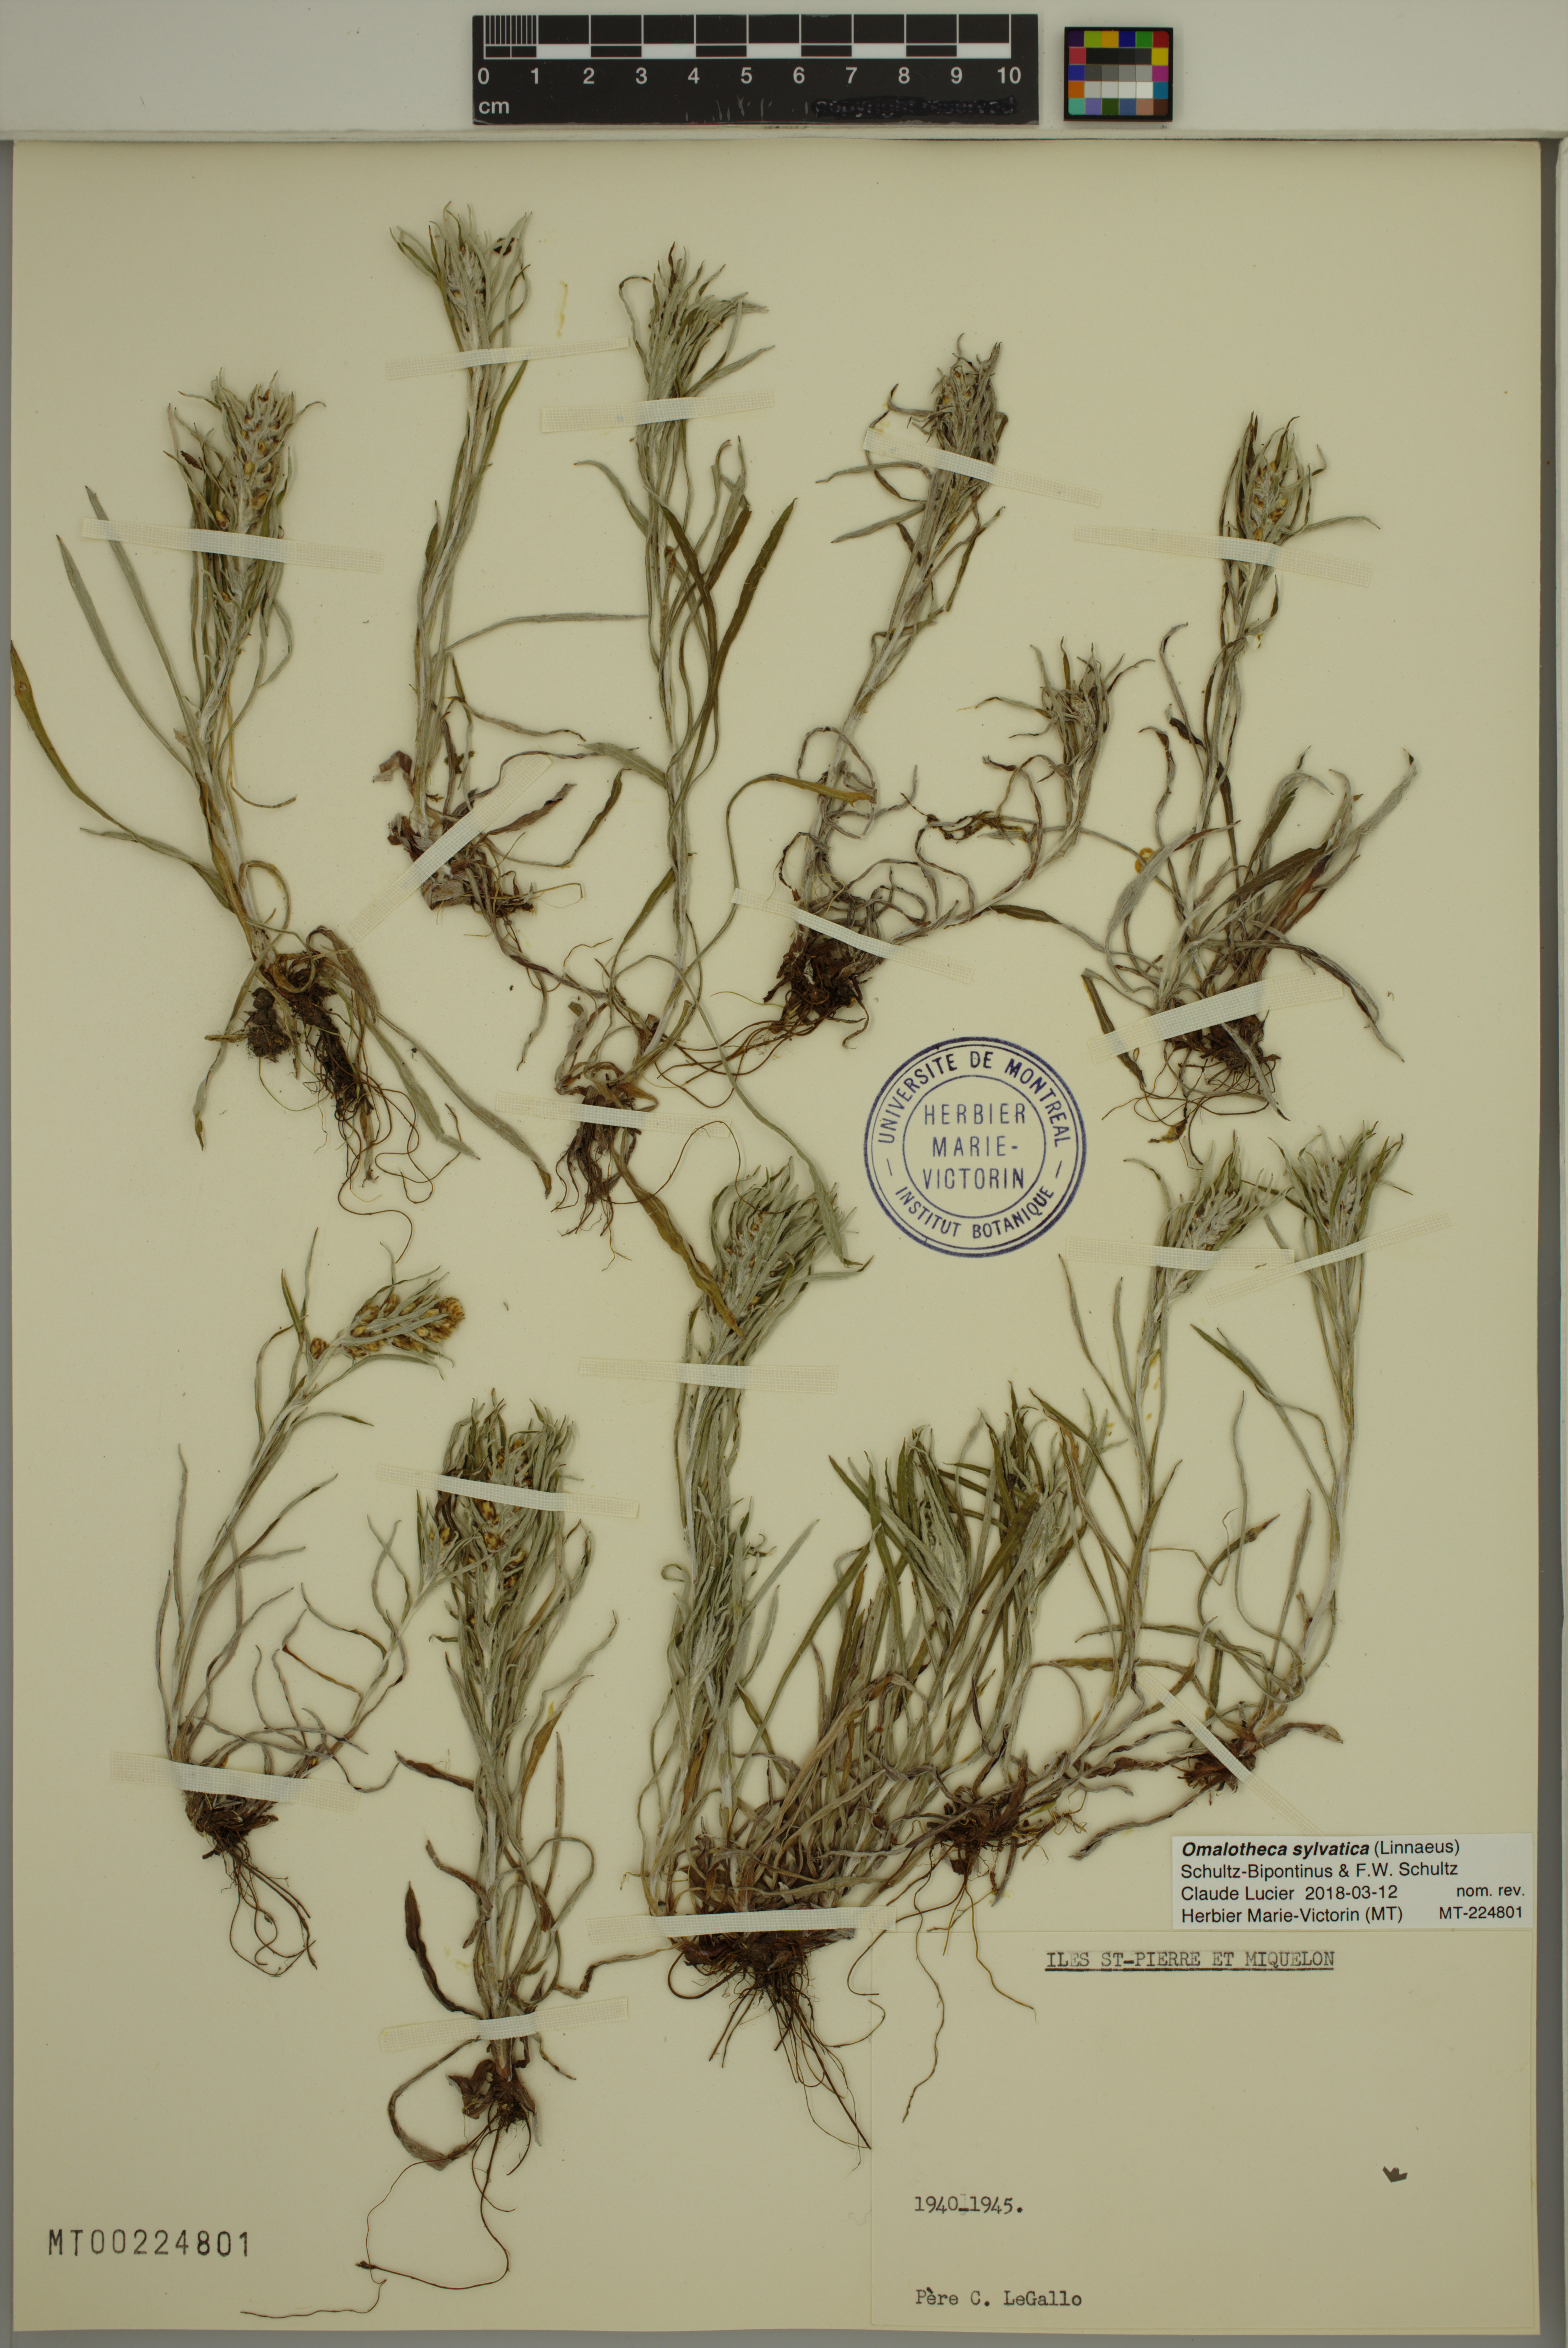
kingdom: Plantae
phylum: Tracheophyta
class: Magnoliopsida
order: Asterales
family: Asteraceae
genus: Omalotheca
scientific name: Omalotheca sylvatica
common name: Heath cudweed
